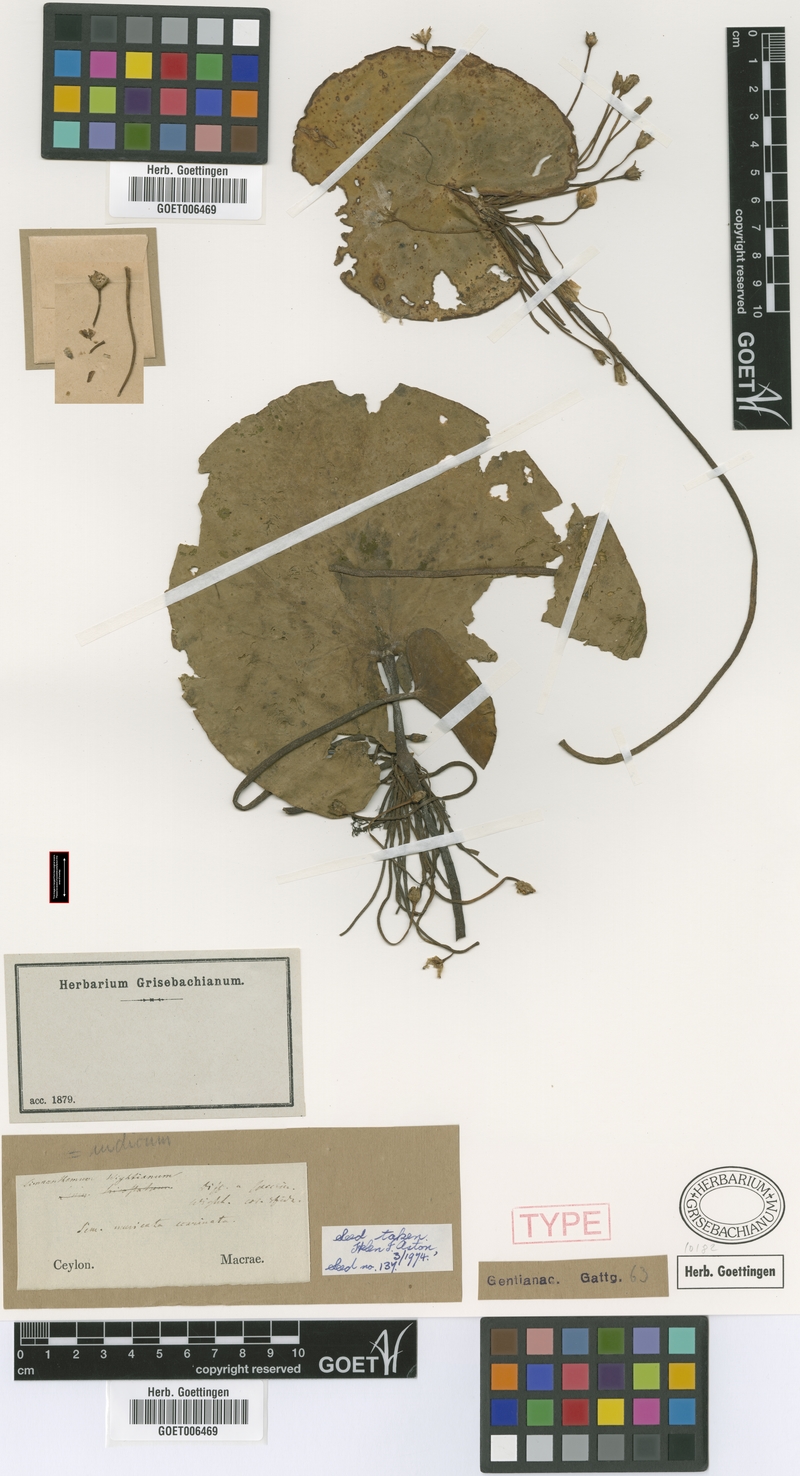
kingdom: Plantae
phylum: Tracheophyta
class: Magnoliopsida
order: Asterales
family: Menyanthaceae
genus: Nymphoides
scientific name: Nymphoides indica
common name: Water-snowflake
